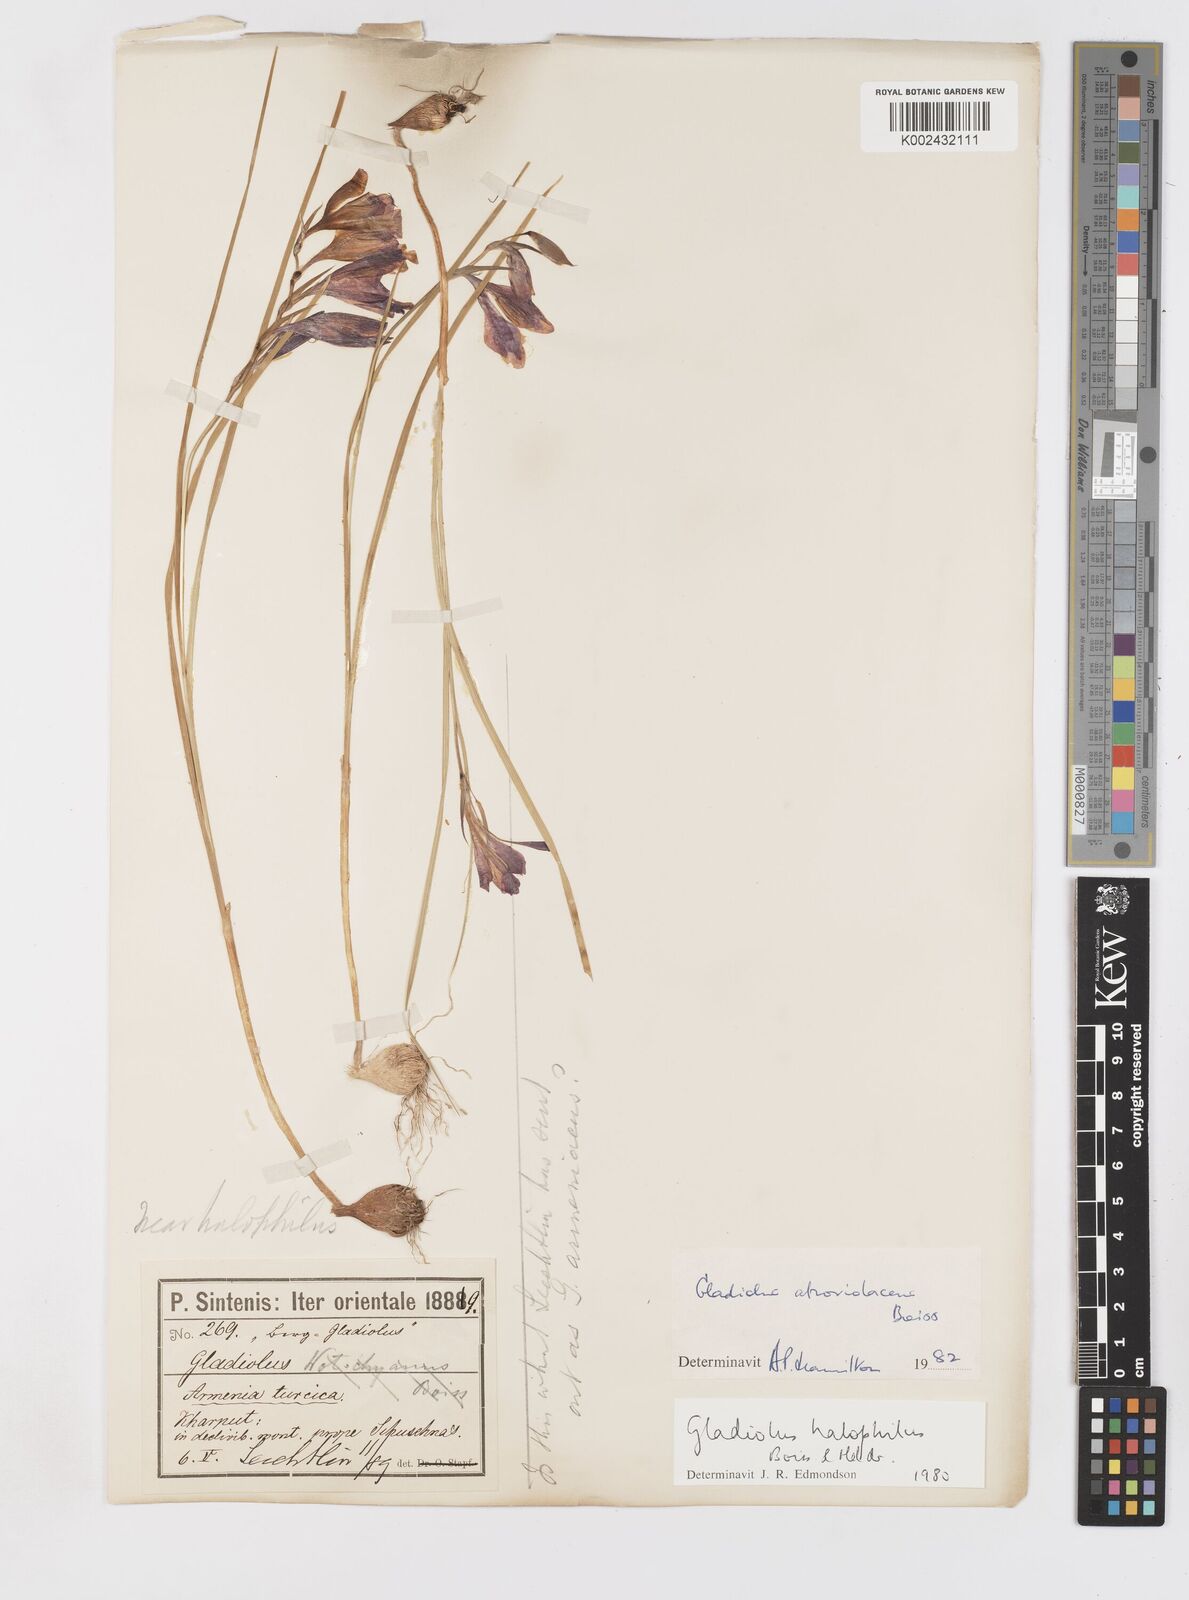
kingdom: Plantae
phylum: Tracheophyta
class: Liliopsida
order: Asparagales
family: Iridaceae
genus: Gladiolus
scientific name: Gladiolus atroviolaceus
